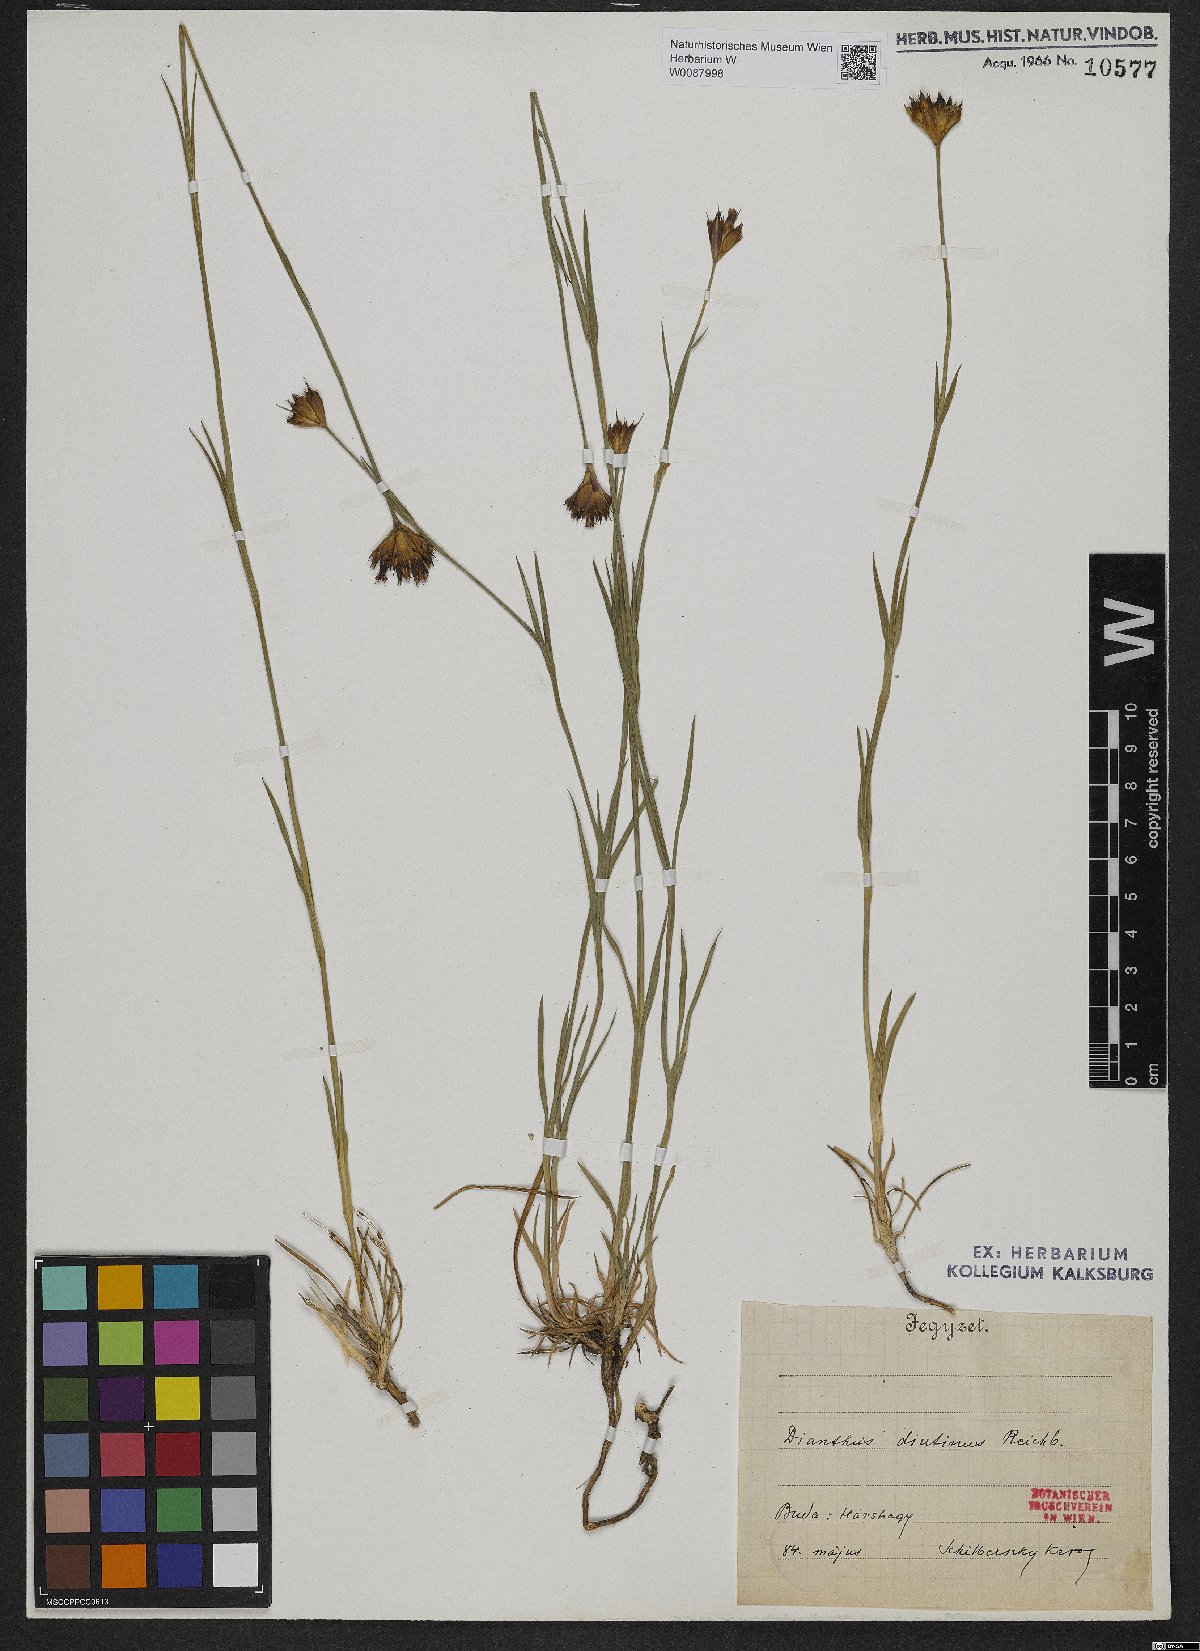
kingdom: Plantae
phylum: Tracheophyta
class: Magnoliopsida
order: Caryophyllales
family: Caryophyllaceae
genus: Dianthus
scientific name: Dianthus pontederae
